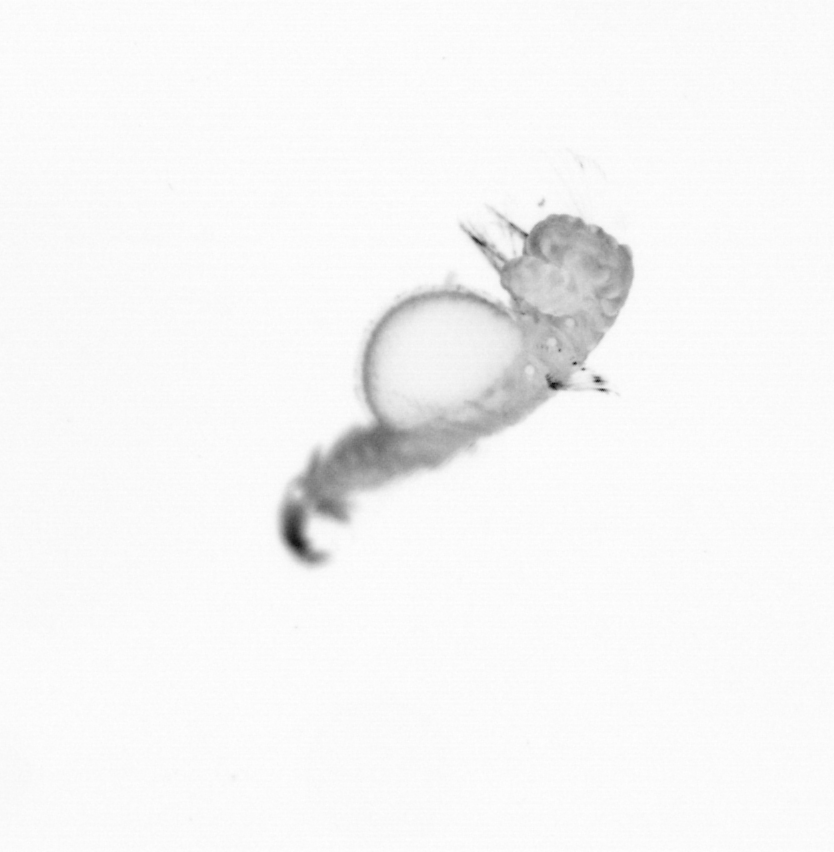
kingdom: Animalia
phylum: Annelida
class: Polychaeta
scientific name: Polychaeta
